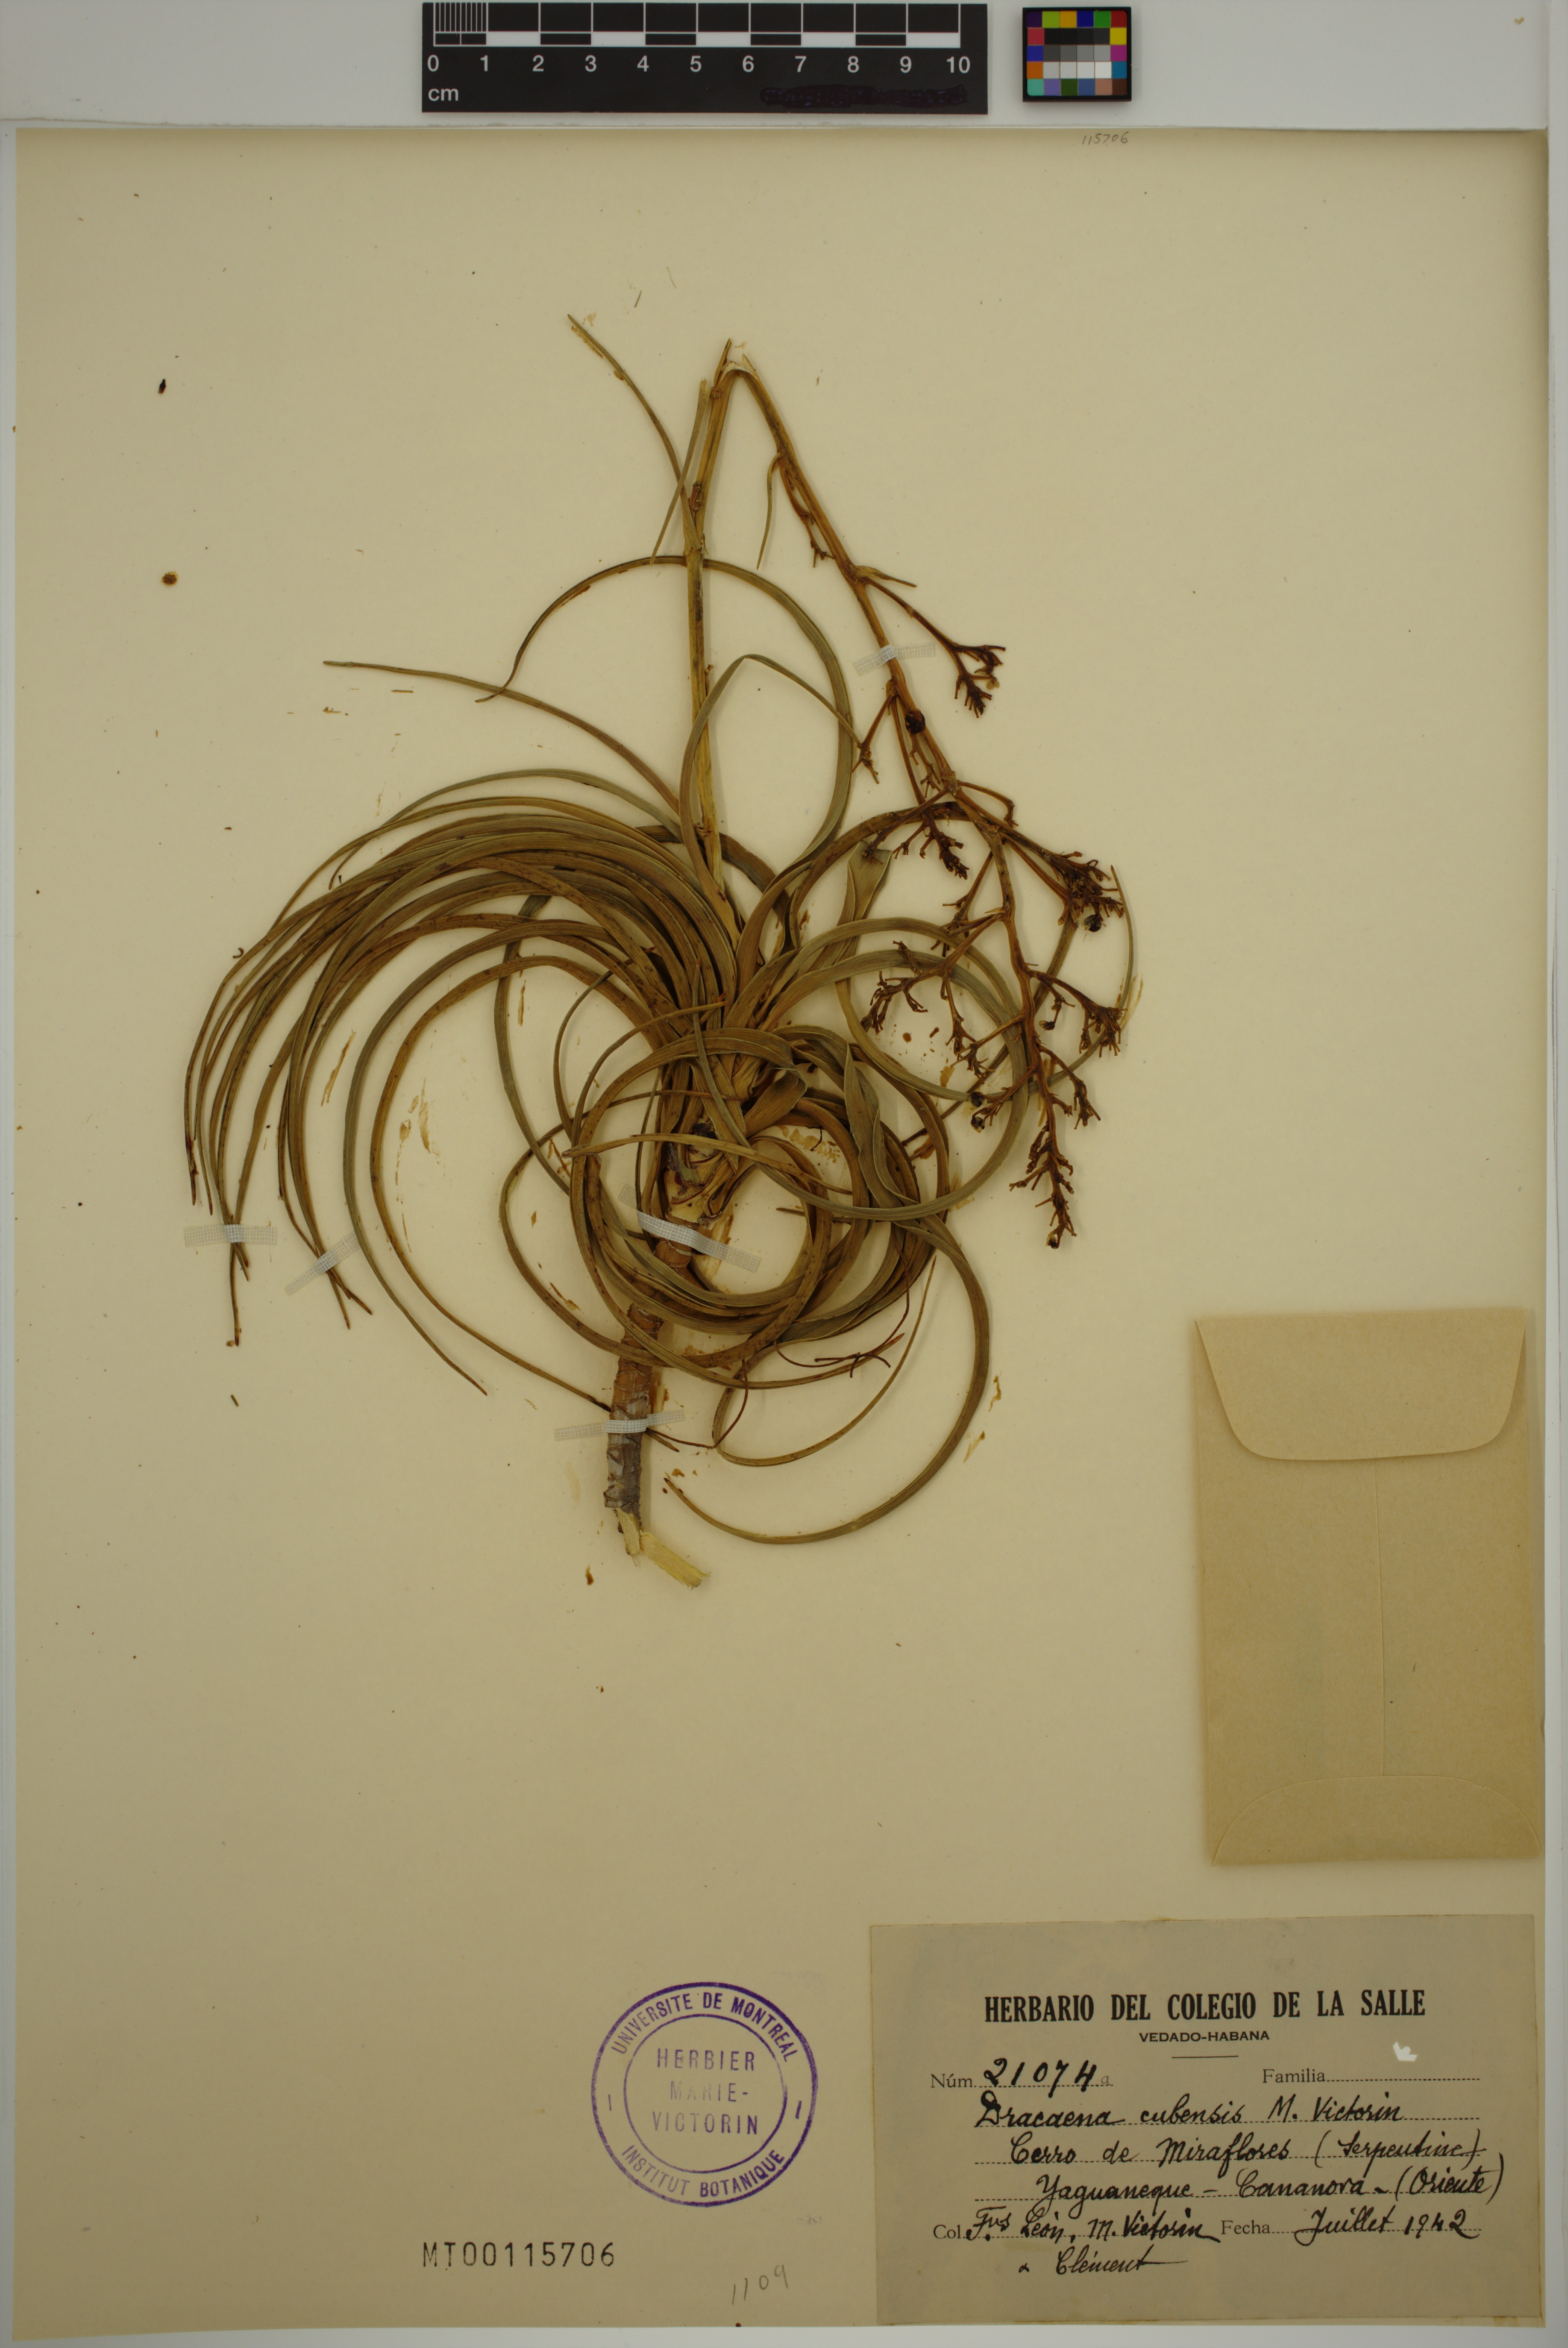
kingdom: Plantae
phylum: Tracheophyta
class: Liliopsida
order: Asparagales
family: Asparagaceae
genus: Dracaena
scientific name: Dracaena cubensis
